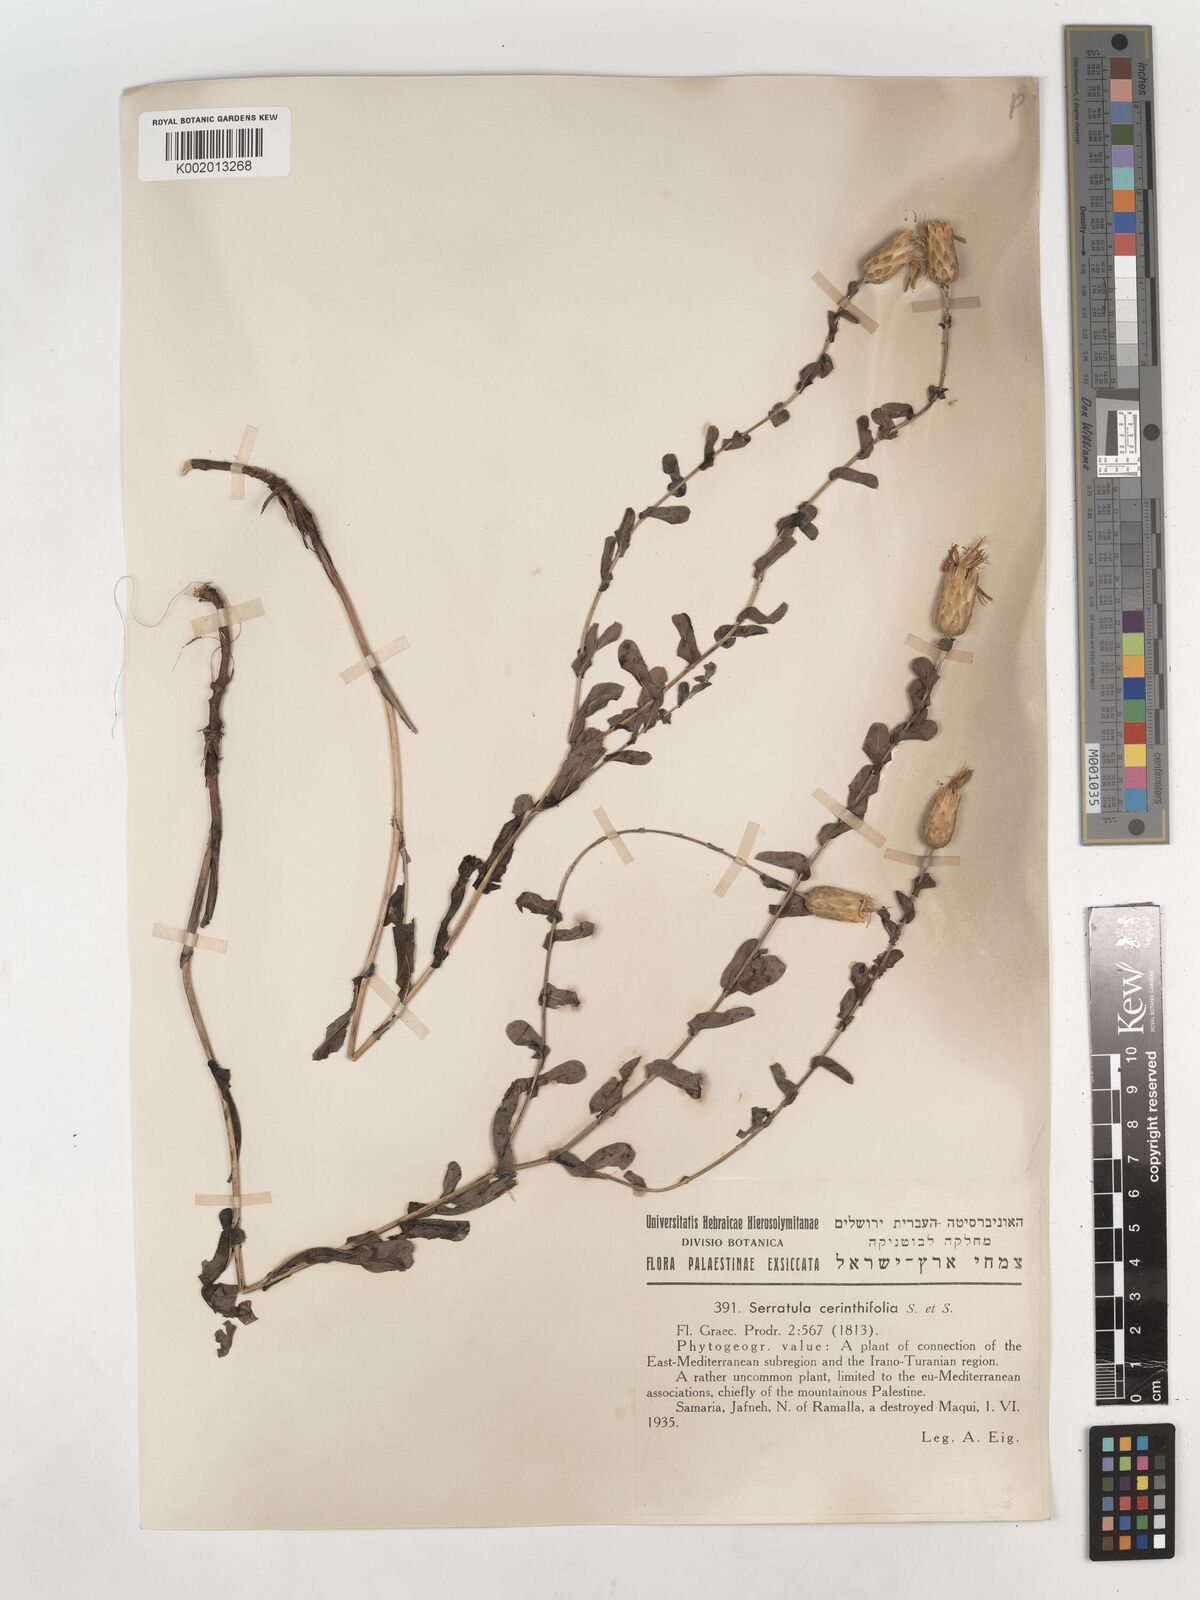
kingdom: Plantae
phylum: Tracheophyta
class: Magnoliopsida
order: Asterales
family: Asteraceae
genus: Klasea
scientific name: Klasea cerinthifolia
